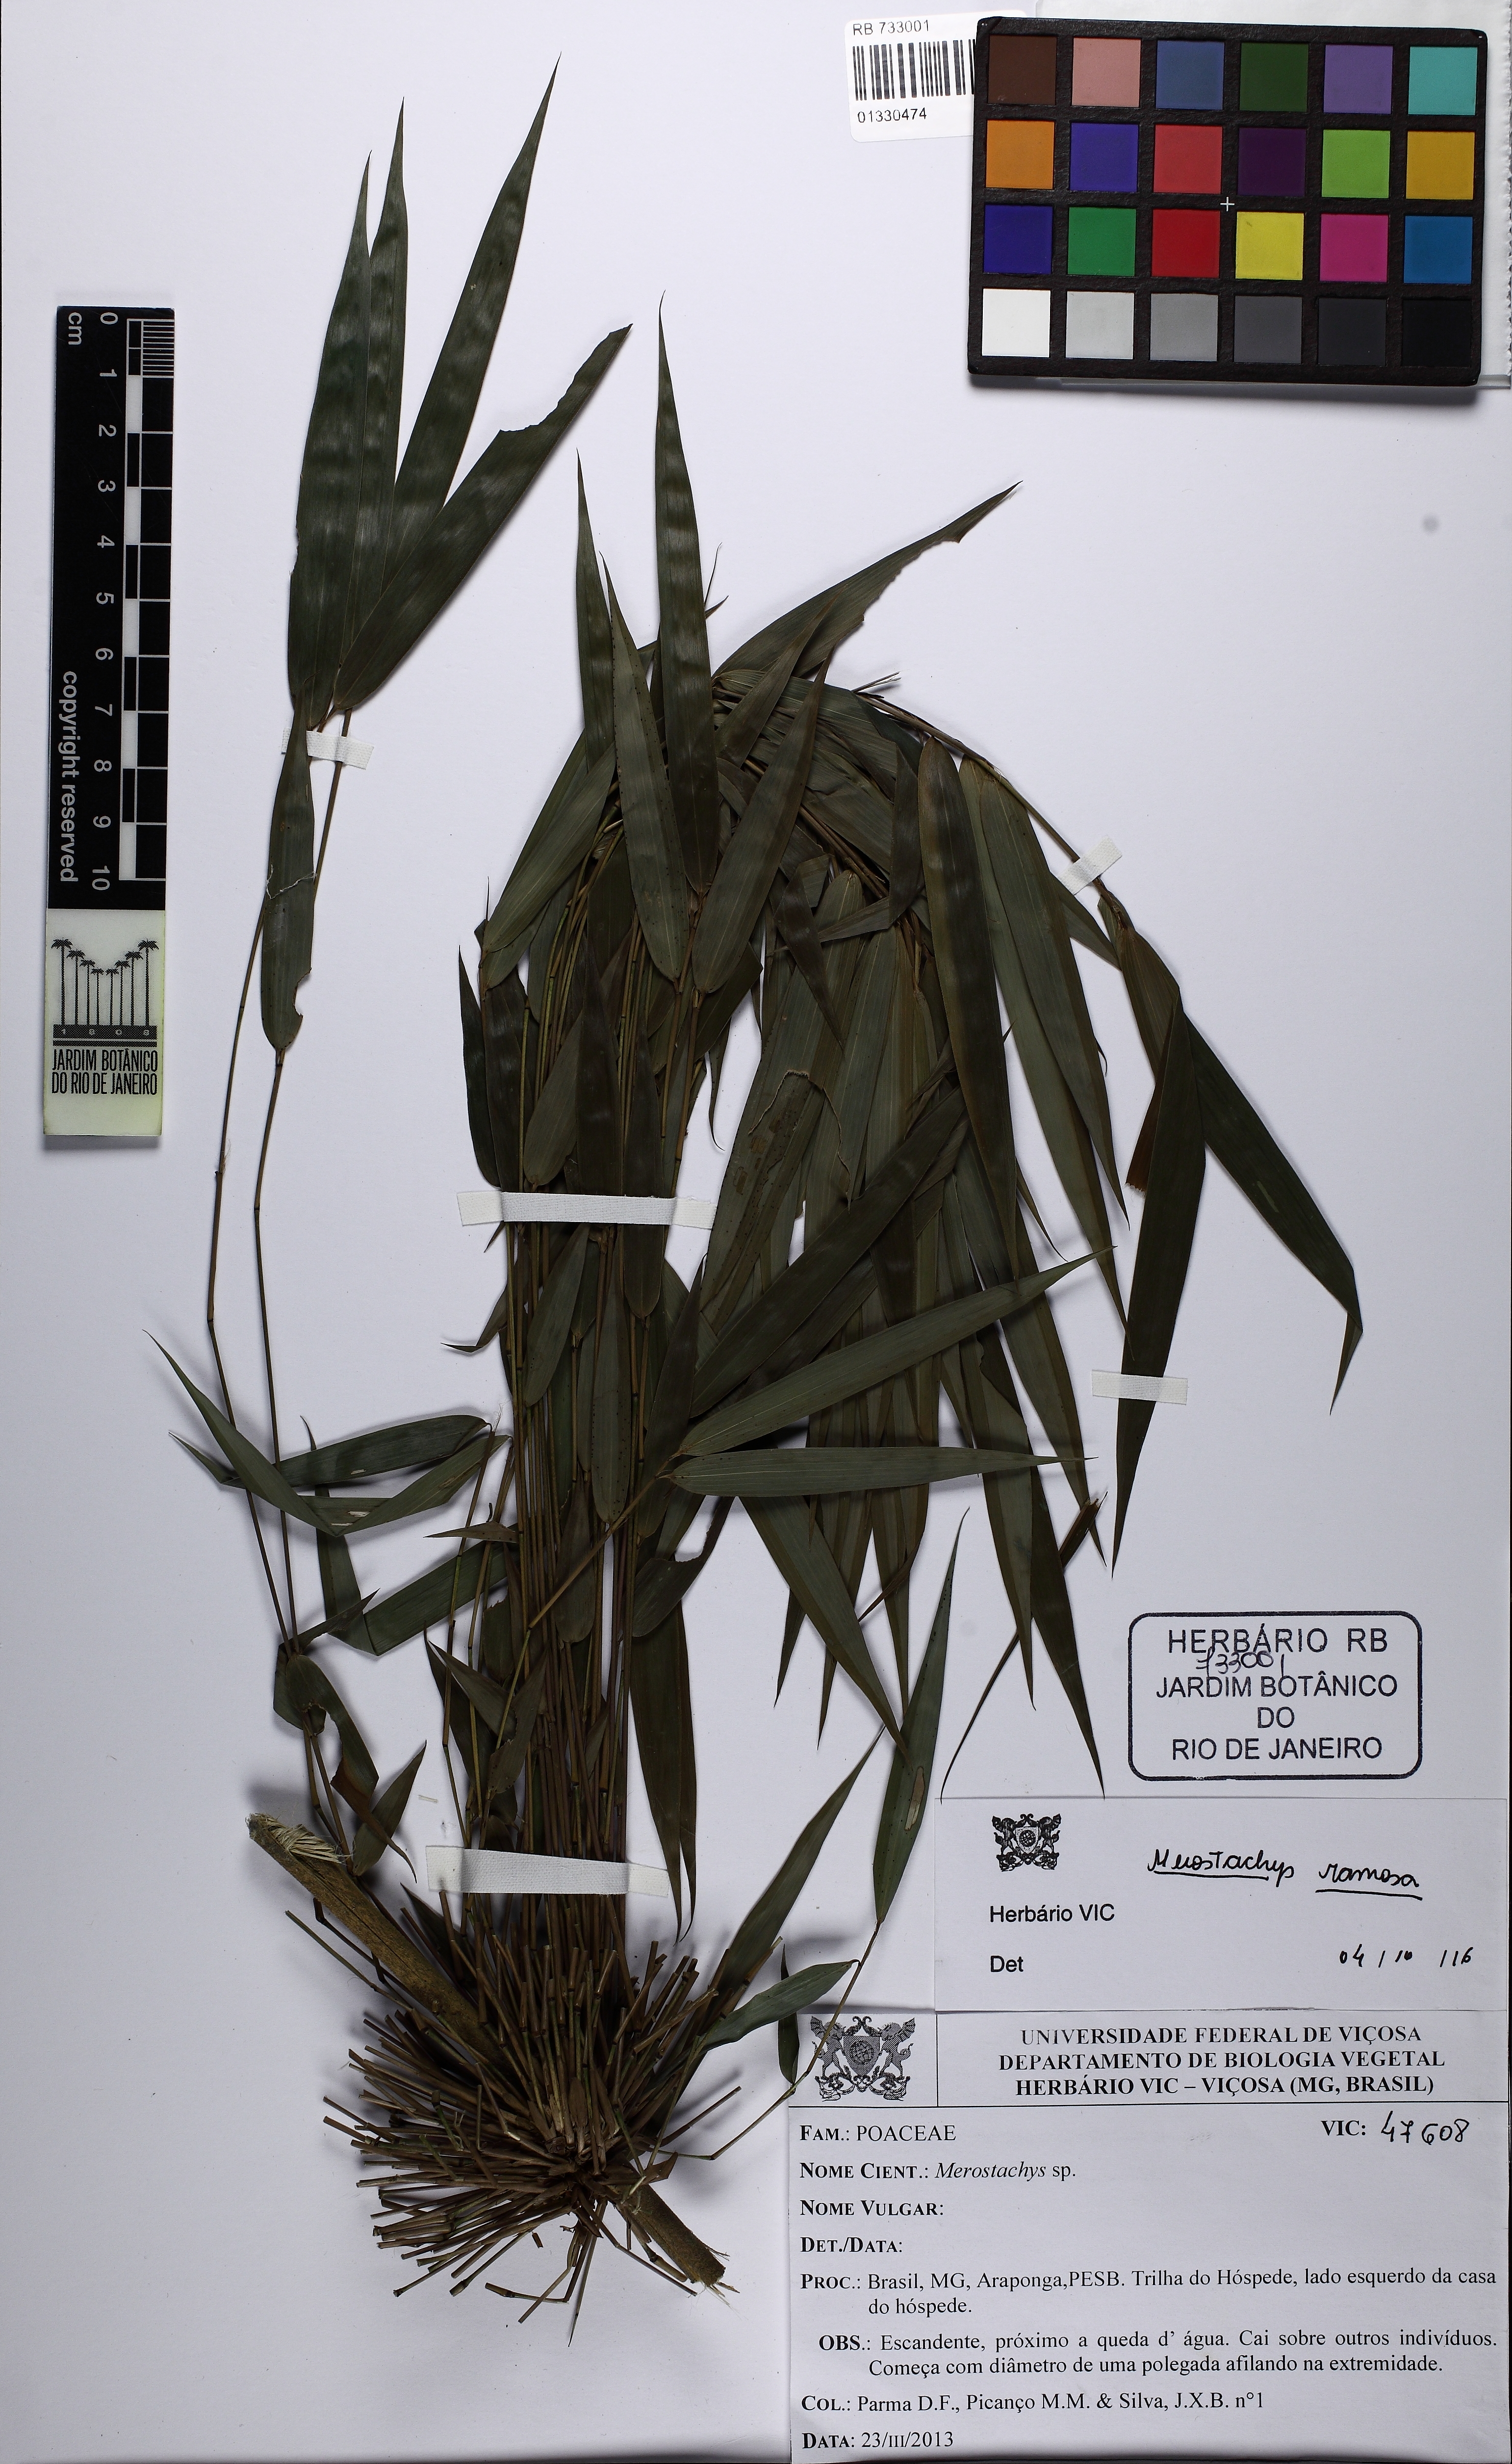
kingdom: Plantae
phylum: Tracheophyta
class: Liliopsida
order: Poales
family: Poaceae
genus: Merostachys
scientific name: Merostachys ramosa
